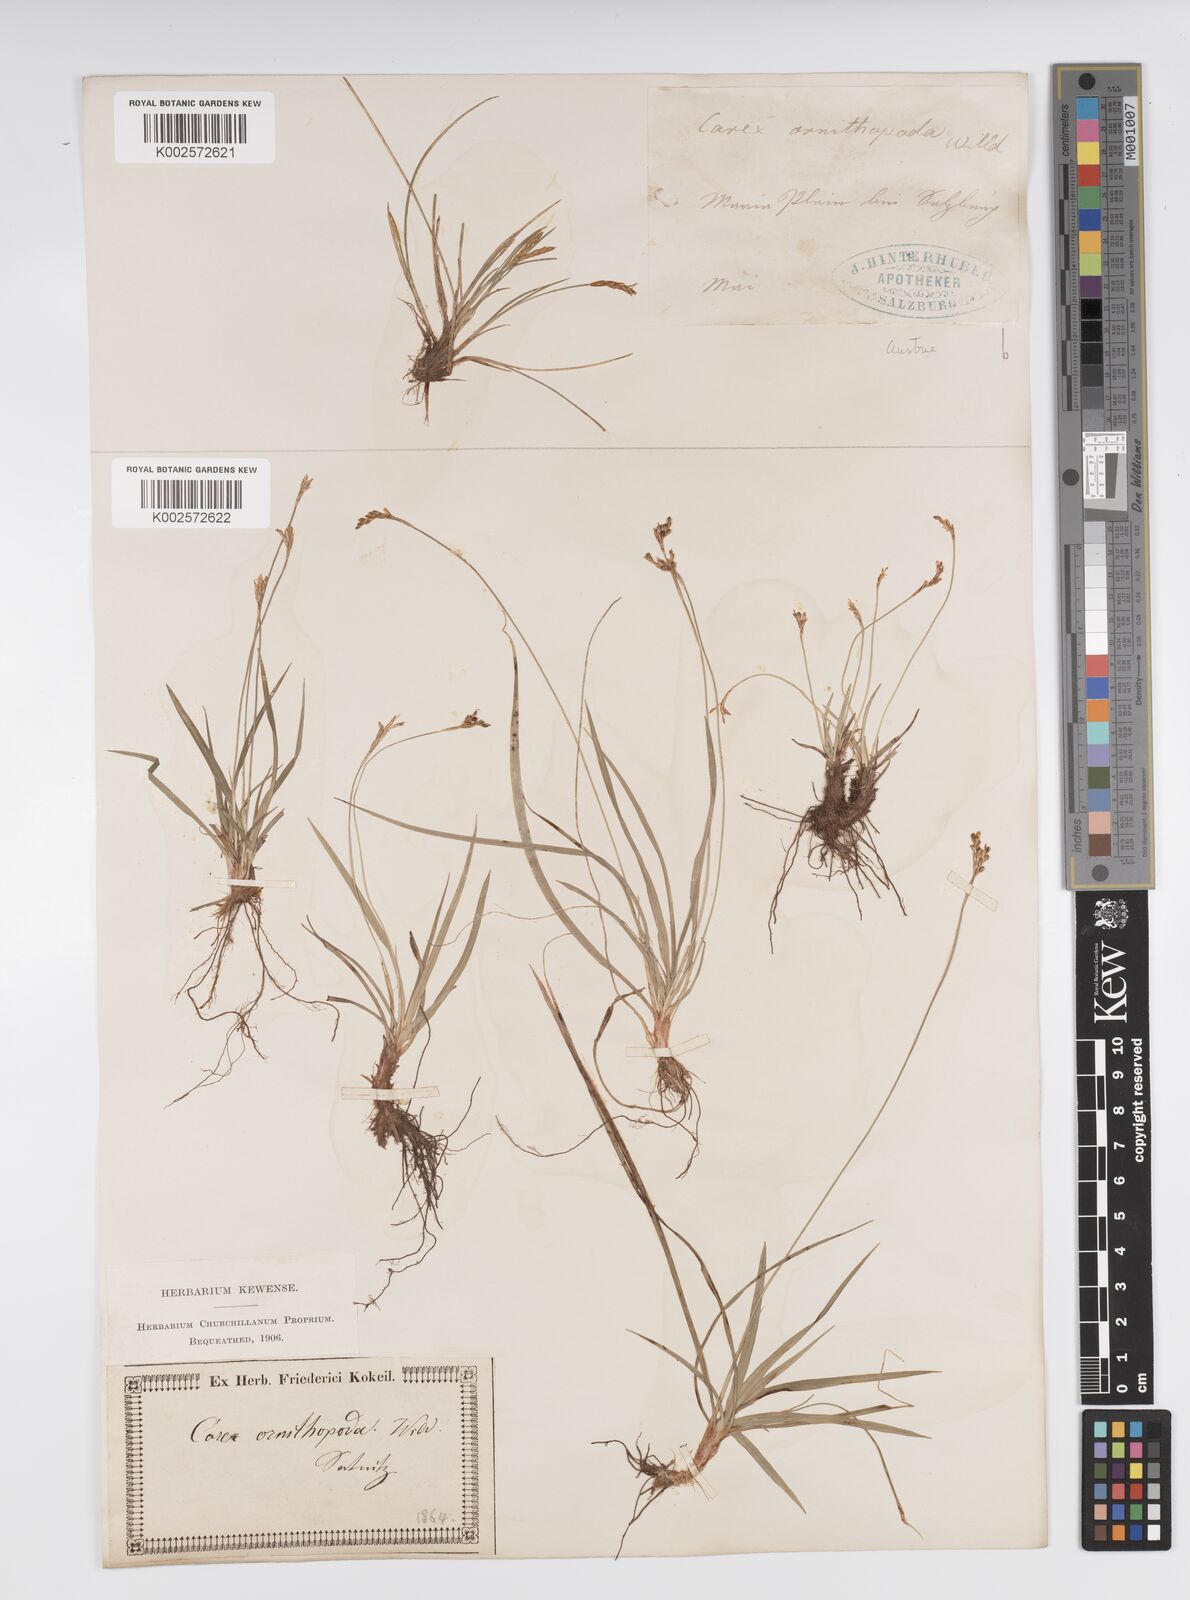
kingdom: Plantae
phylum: Tracheophyta
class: Liliopsida
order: Poales
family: Cyperaceae
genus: Carex
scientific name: Carex ornithopoda
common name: Bird's-foot sedge
